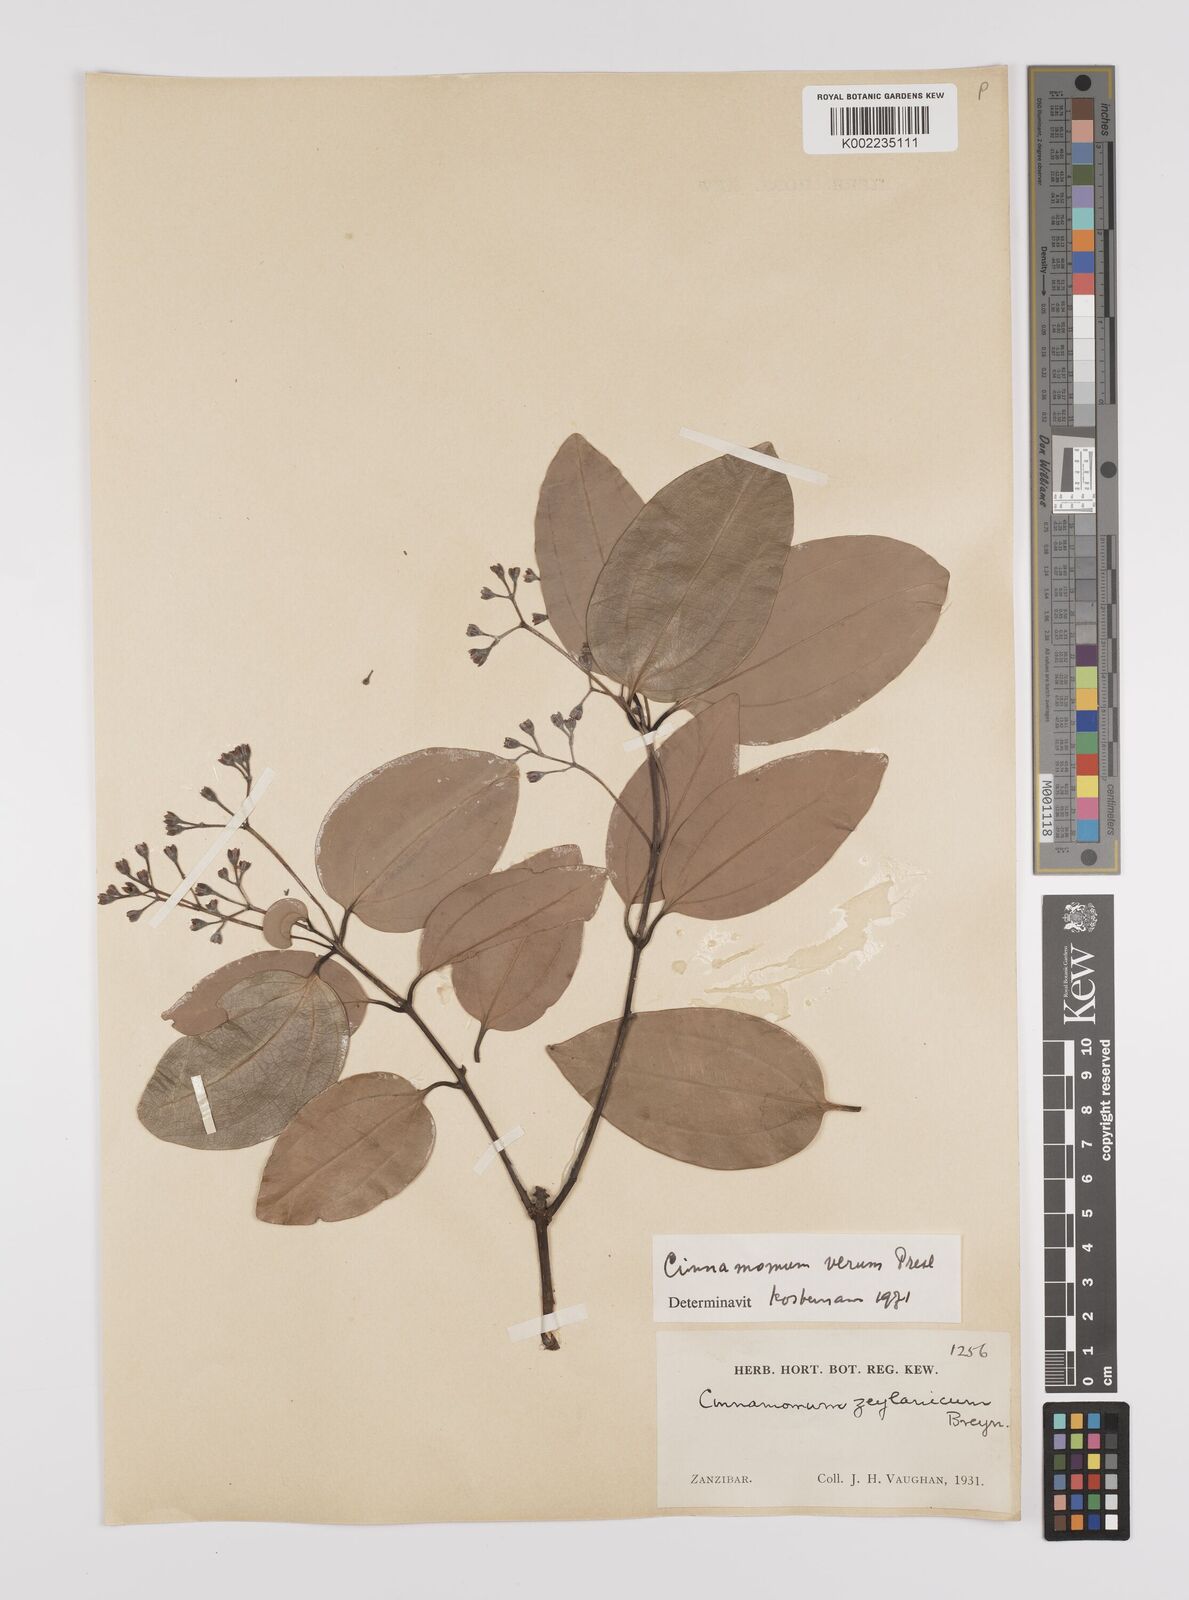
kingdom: Plantae
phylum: Tracheophyta
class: Magnoliopsida
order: Laurales
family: Lauraceae
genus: Cinnamomum
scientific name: Cinnamomum verum
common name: Cinnamon
